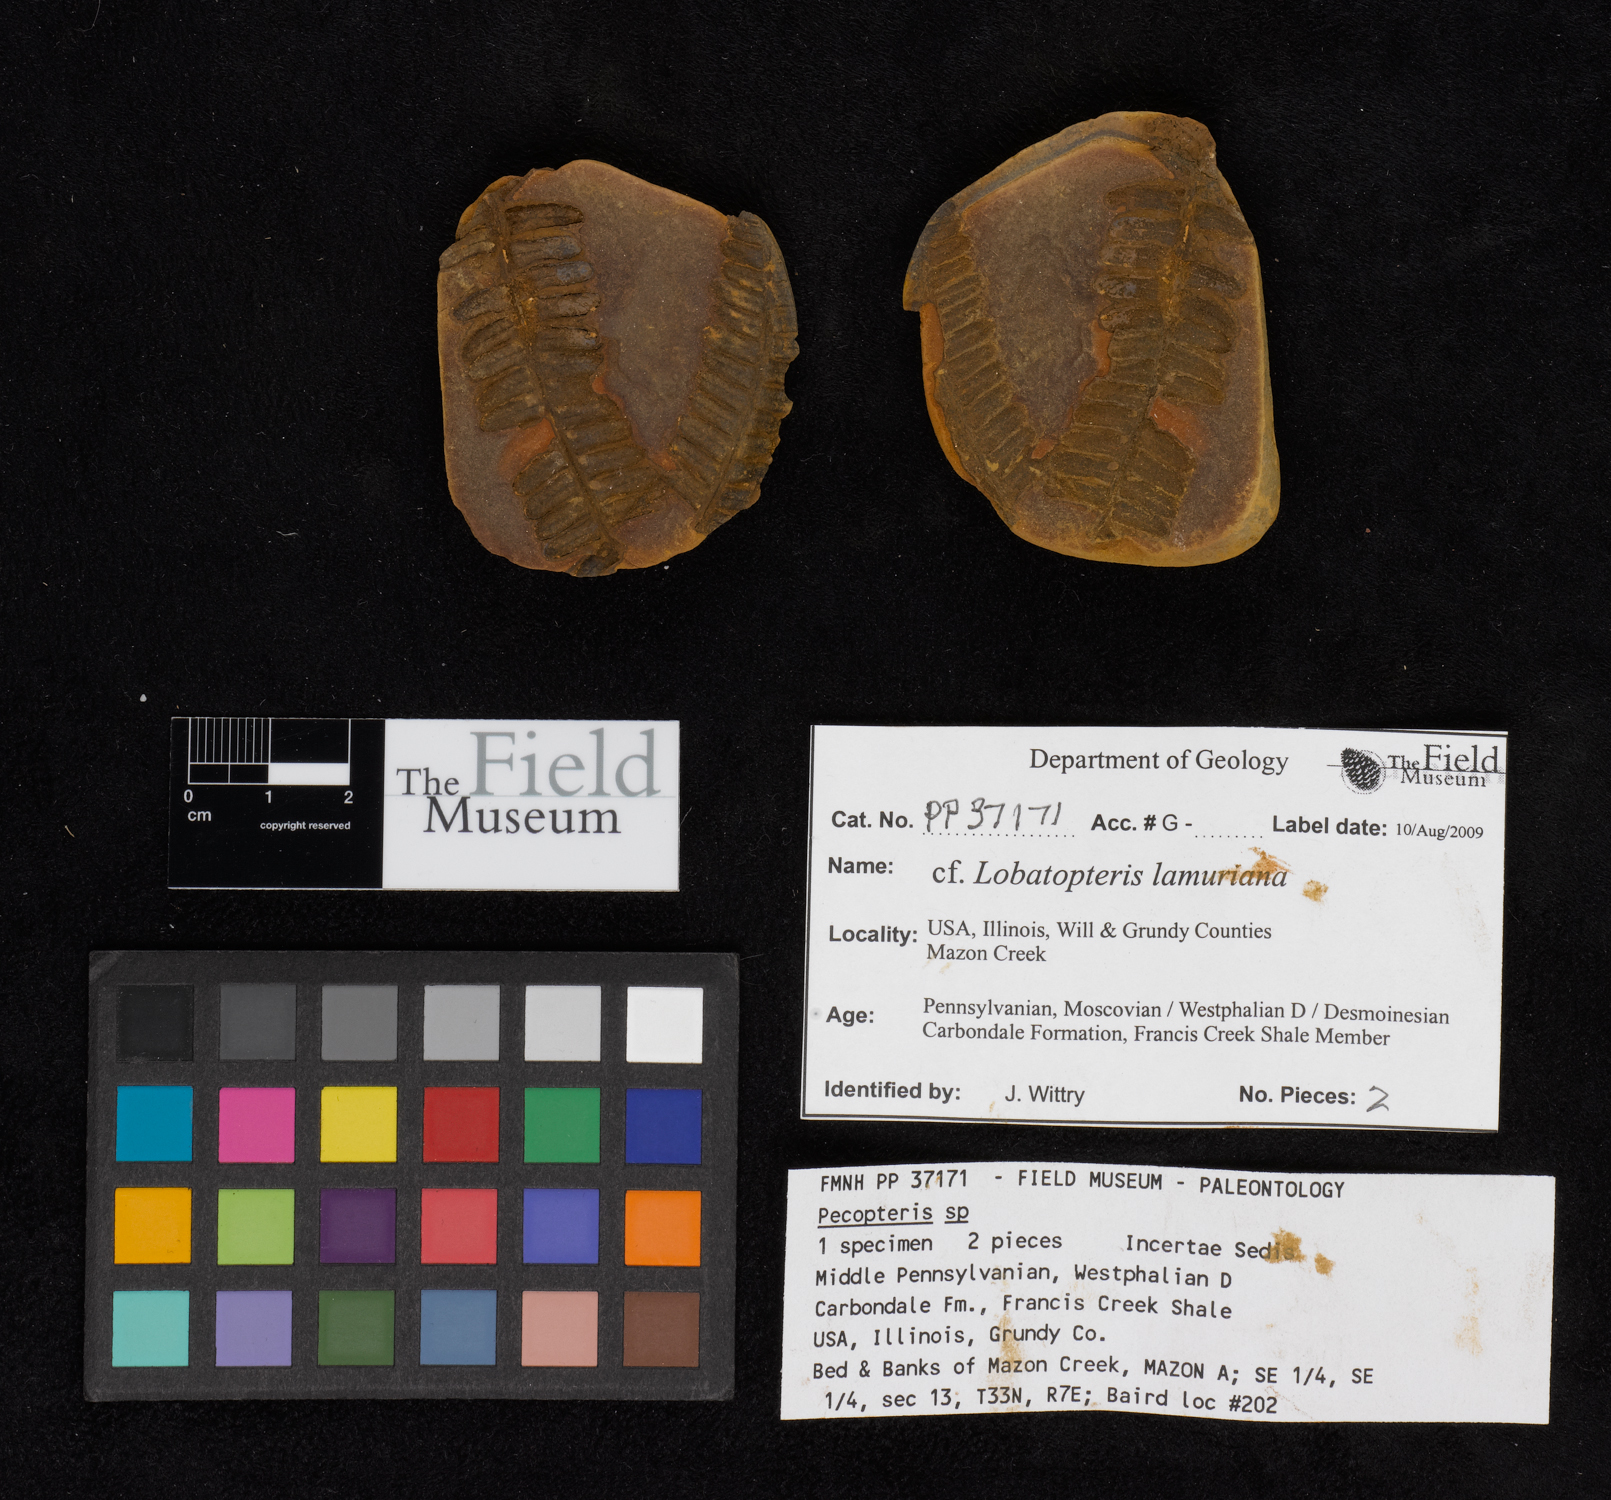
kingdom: Plantae
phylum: Tracheophyta
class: Polypodiopsida
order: Marattiales
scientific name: Marattiales
